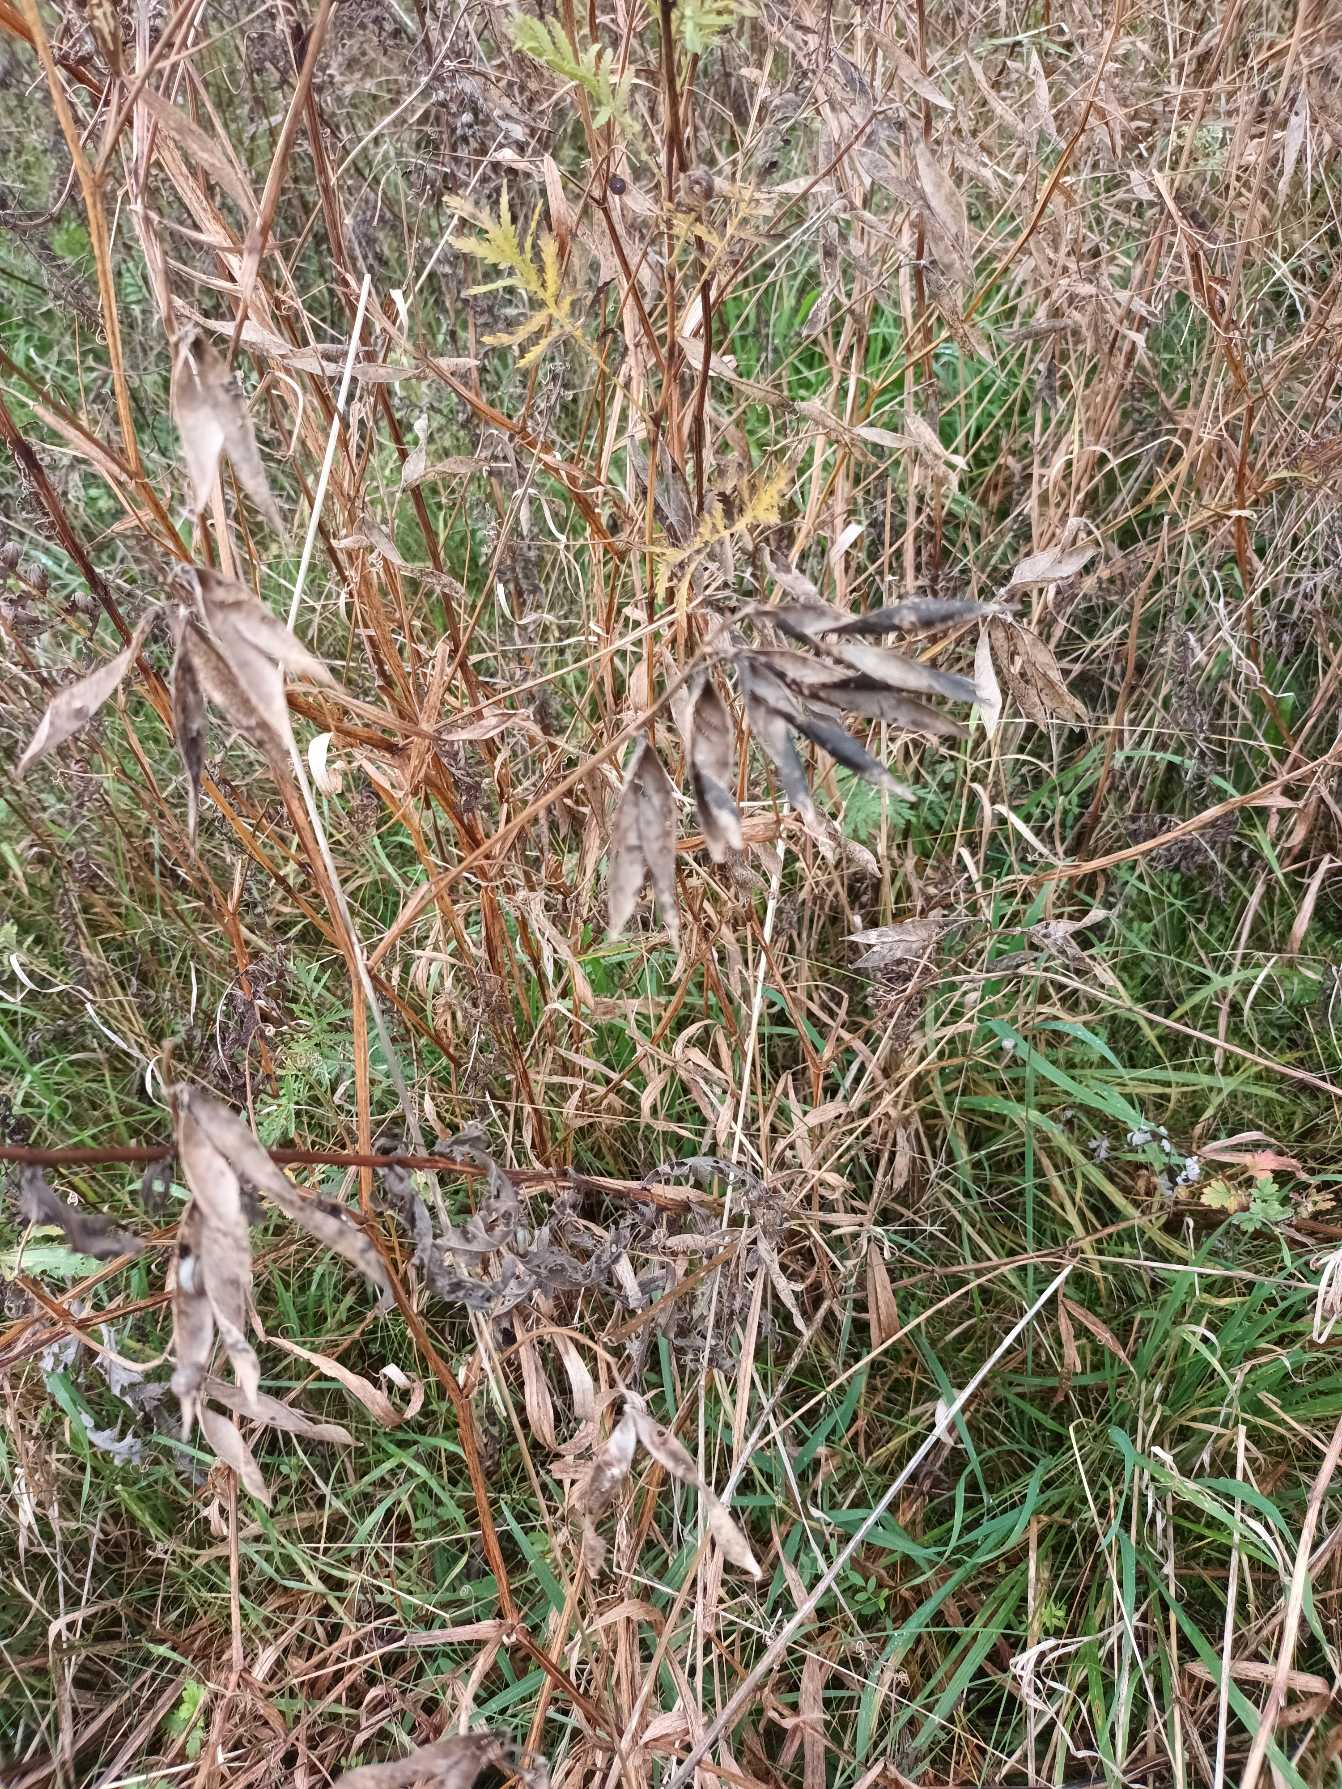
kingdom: Plantae
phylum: Tracheophyta
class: Magnoliopsida
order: Fabales
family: Fabaceae
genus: Lathyrus
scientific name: Lathyrus sylvestris
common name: Skov-fladbælg
